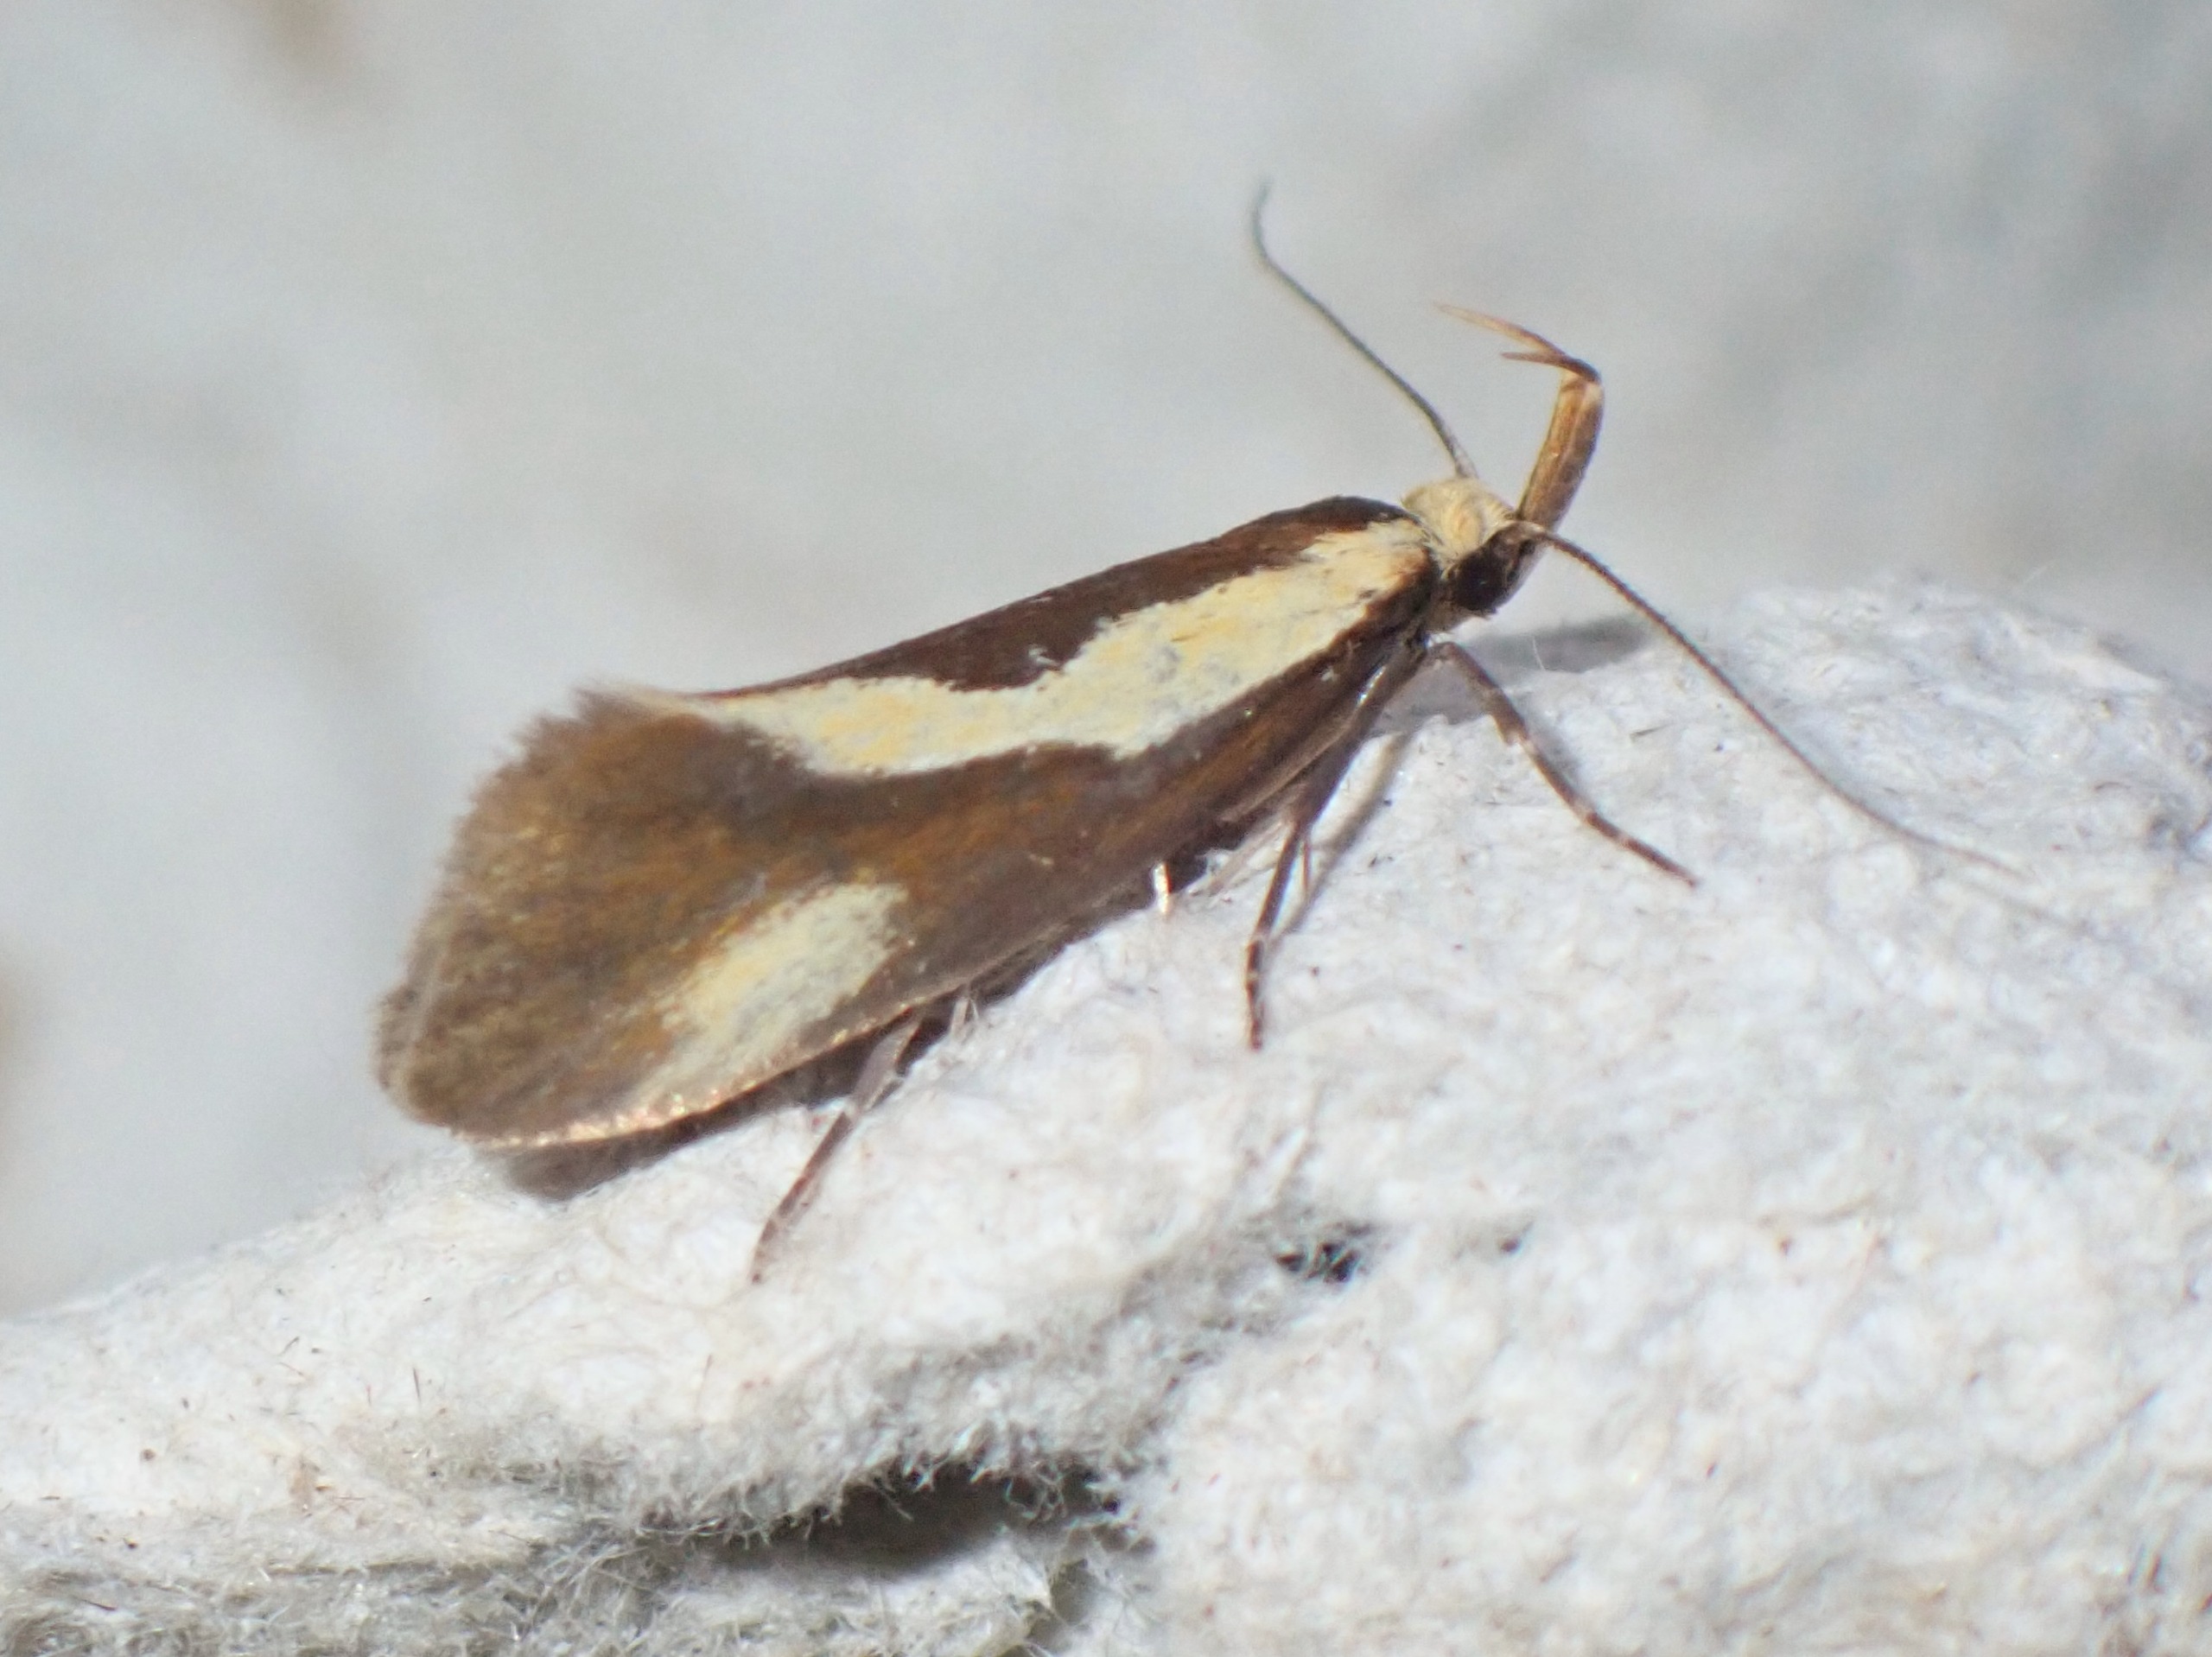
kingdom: Animalia
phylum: Arthropoda
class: Insecta
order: Lepidoptera
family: Oecophoridae
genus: Harpella
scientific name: Harpella forficella
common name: Kæmpeprydvinge
